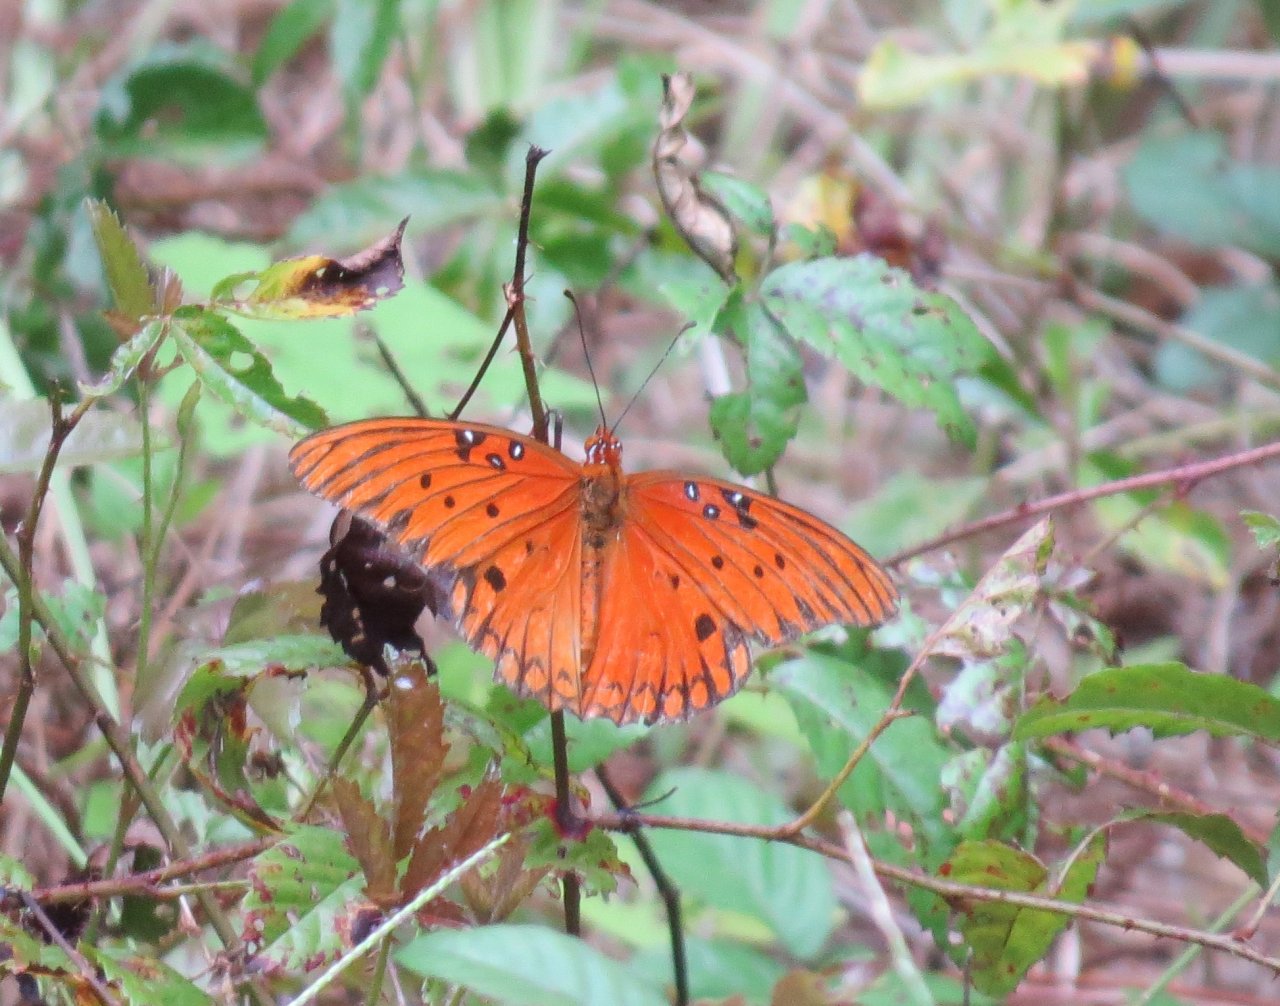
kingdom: Animalia
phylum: Arthropoda
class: Insecta
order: Lepidoptera
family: Nymphalidae
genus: Dione
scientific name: Dione vanillae
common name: Gulf Fritillary
